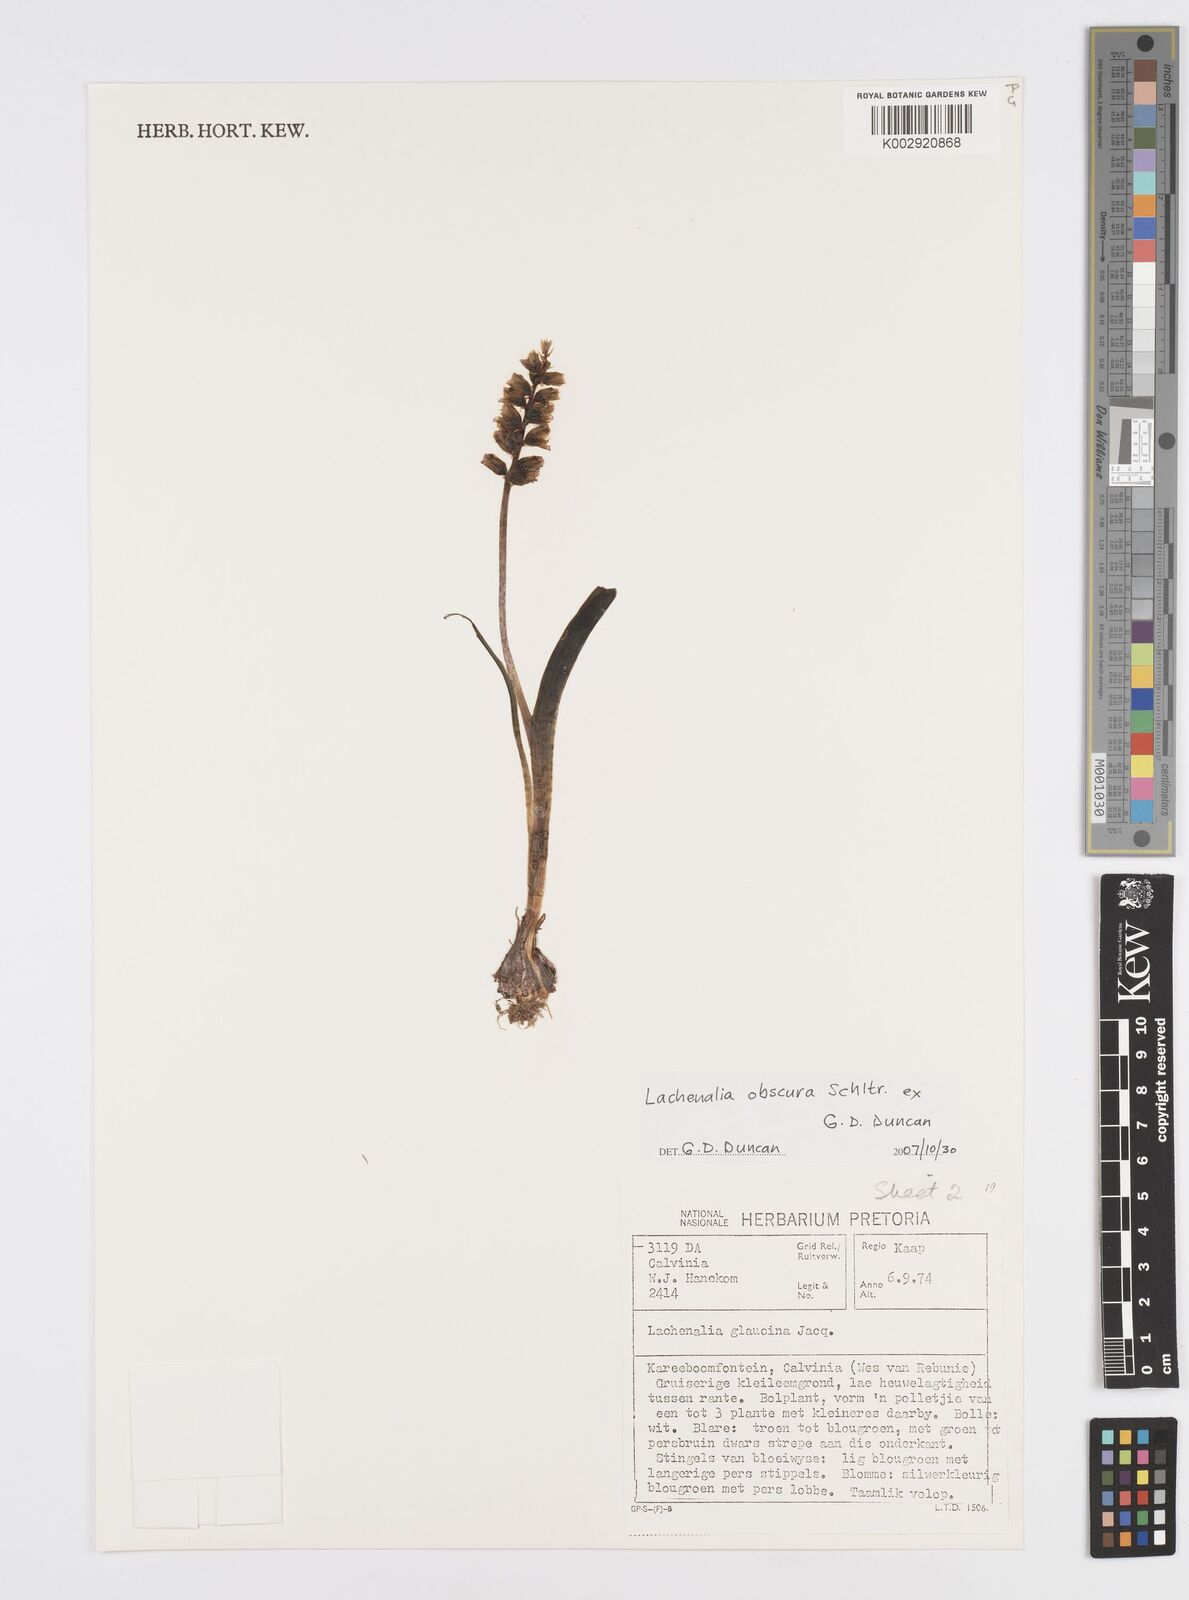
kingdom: Plantae
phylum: Tracheophyta
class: Liliopsida
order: Asparagales
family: Asparagaceae
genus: Lachenalia
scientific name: Lachenalia obscura
